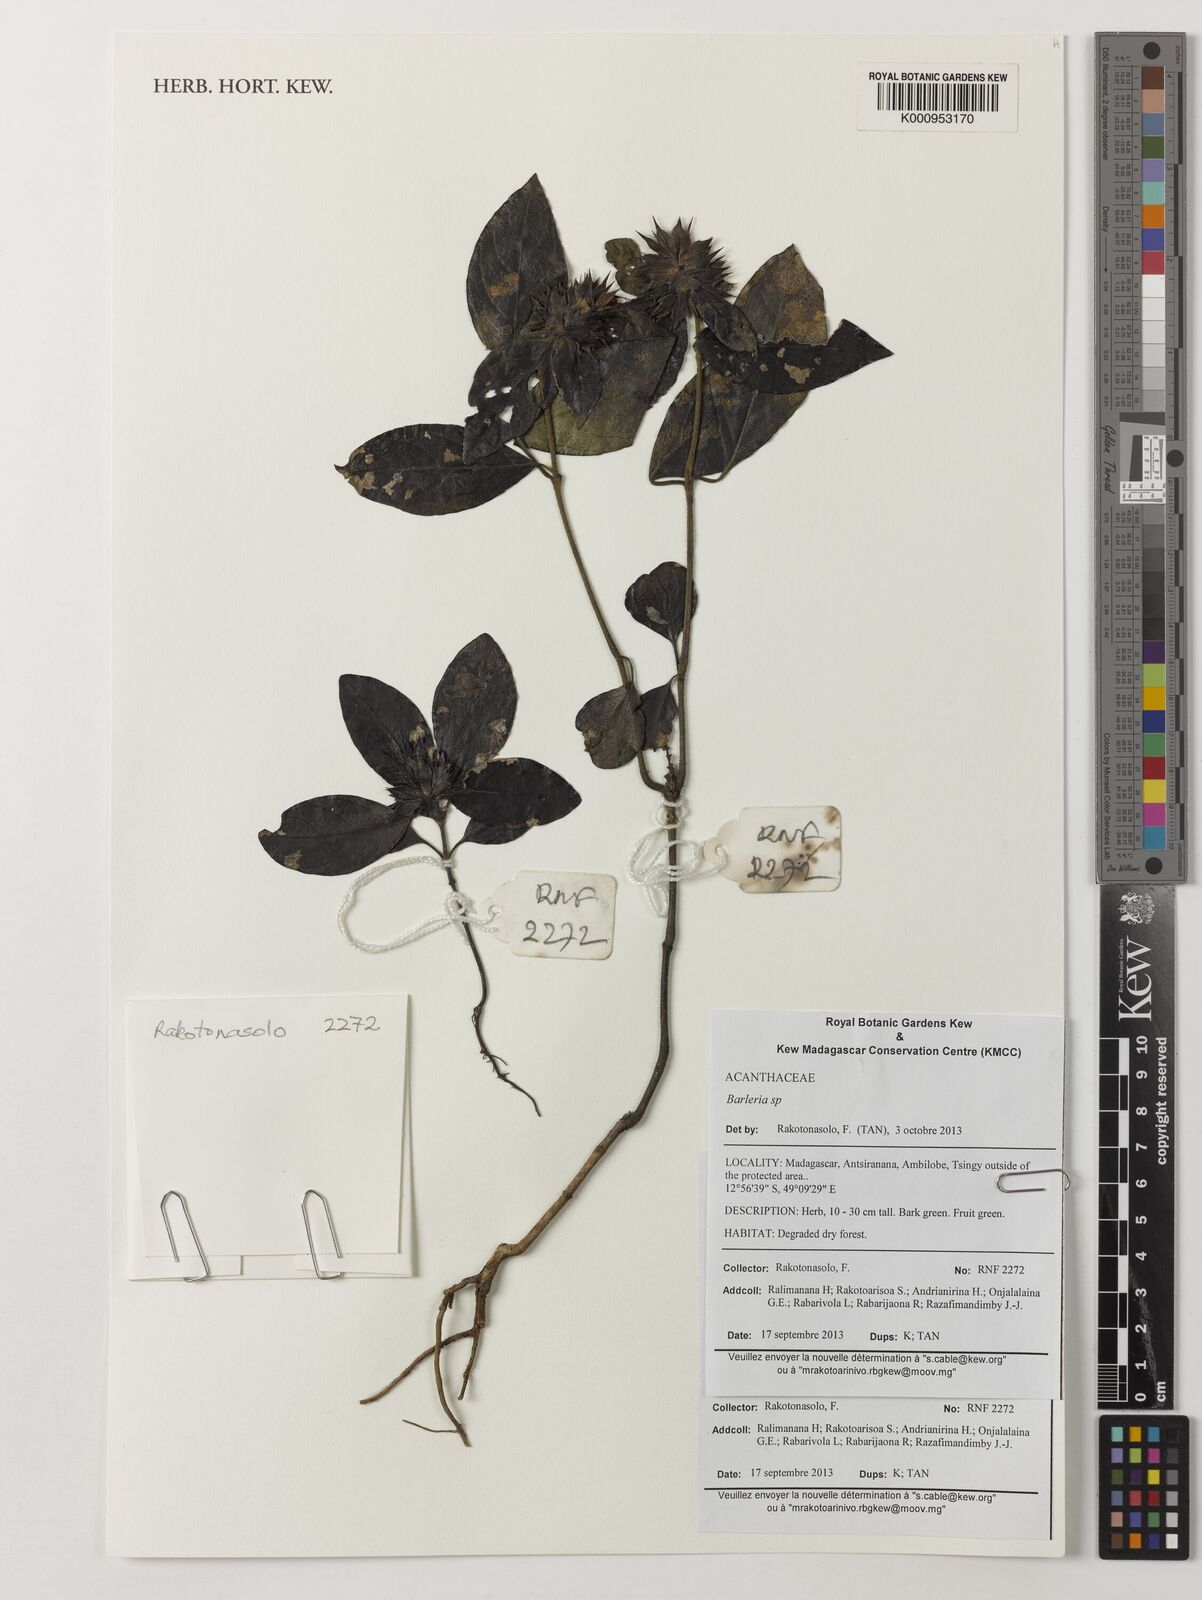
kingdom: Plantae
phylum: Tracheophyta
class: Magnoliopsida
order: Lamiales
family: Acanthaceae
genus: Barleria
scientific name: Barleria
